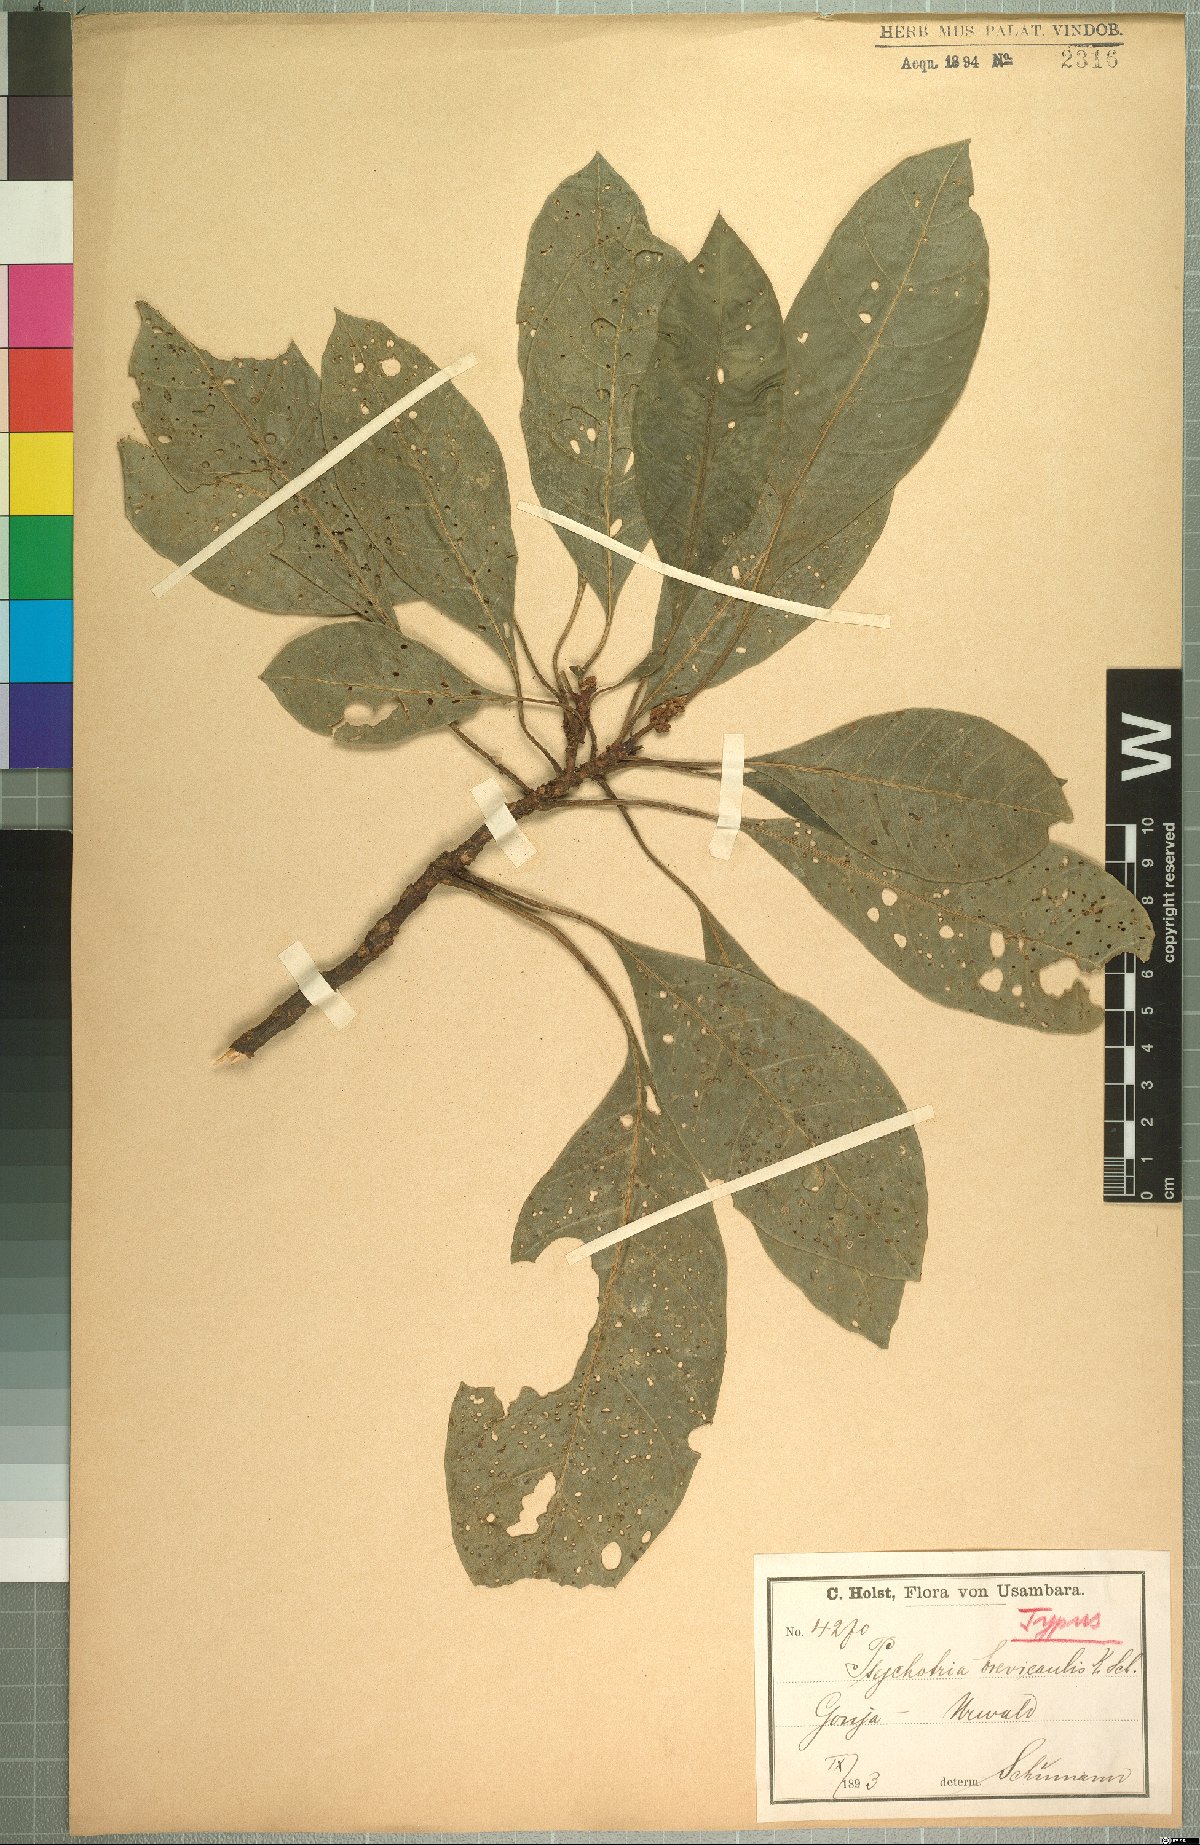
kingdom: Plantae
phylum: Tracheophyta
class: Magnoliopsida
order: Gentianales
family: Rubiaceae
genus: Psychotria
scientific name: Psychotria brevicaulis
